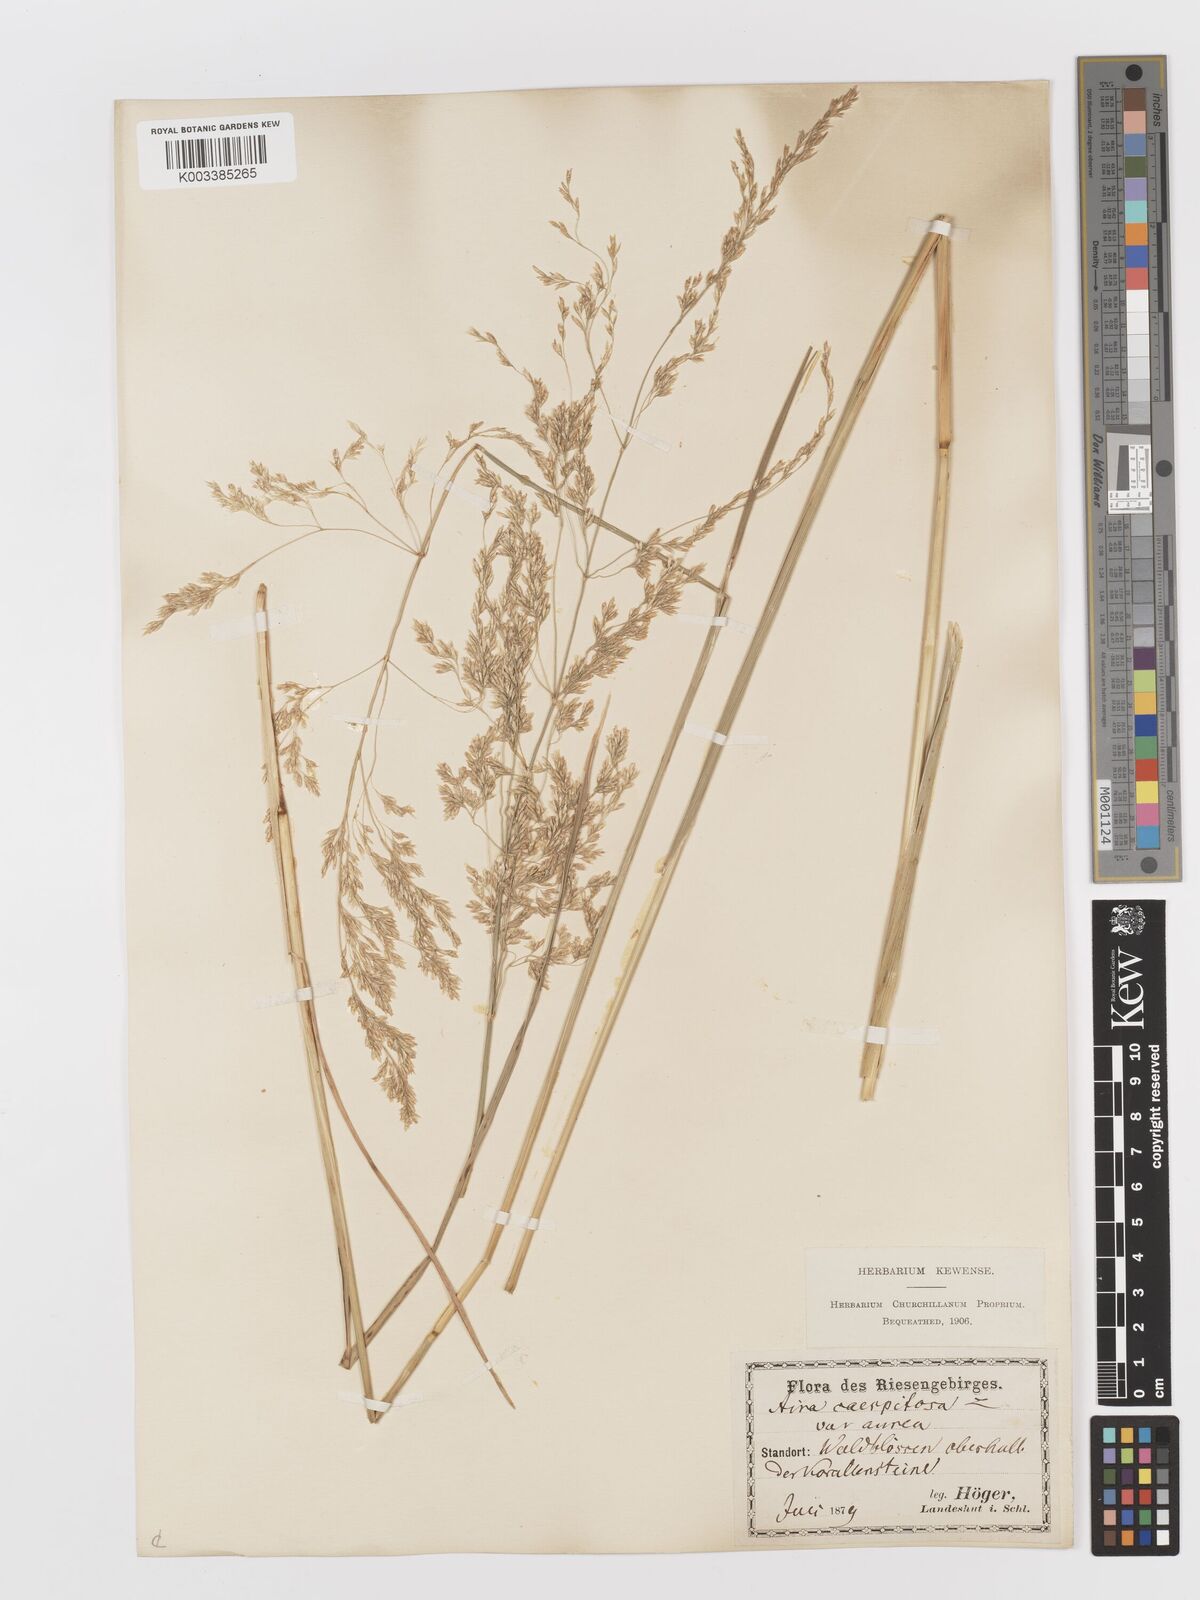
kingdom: Plantae
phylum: Tracheophyta
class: Liliopsida
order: Poales
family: Poaceae
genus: Deschampsia
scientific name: Deschampsia cespitosa
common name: Tufted hair-grass
